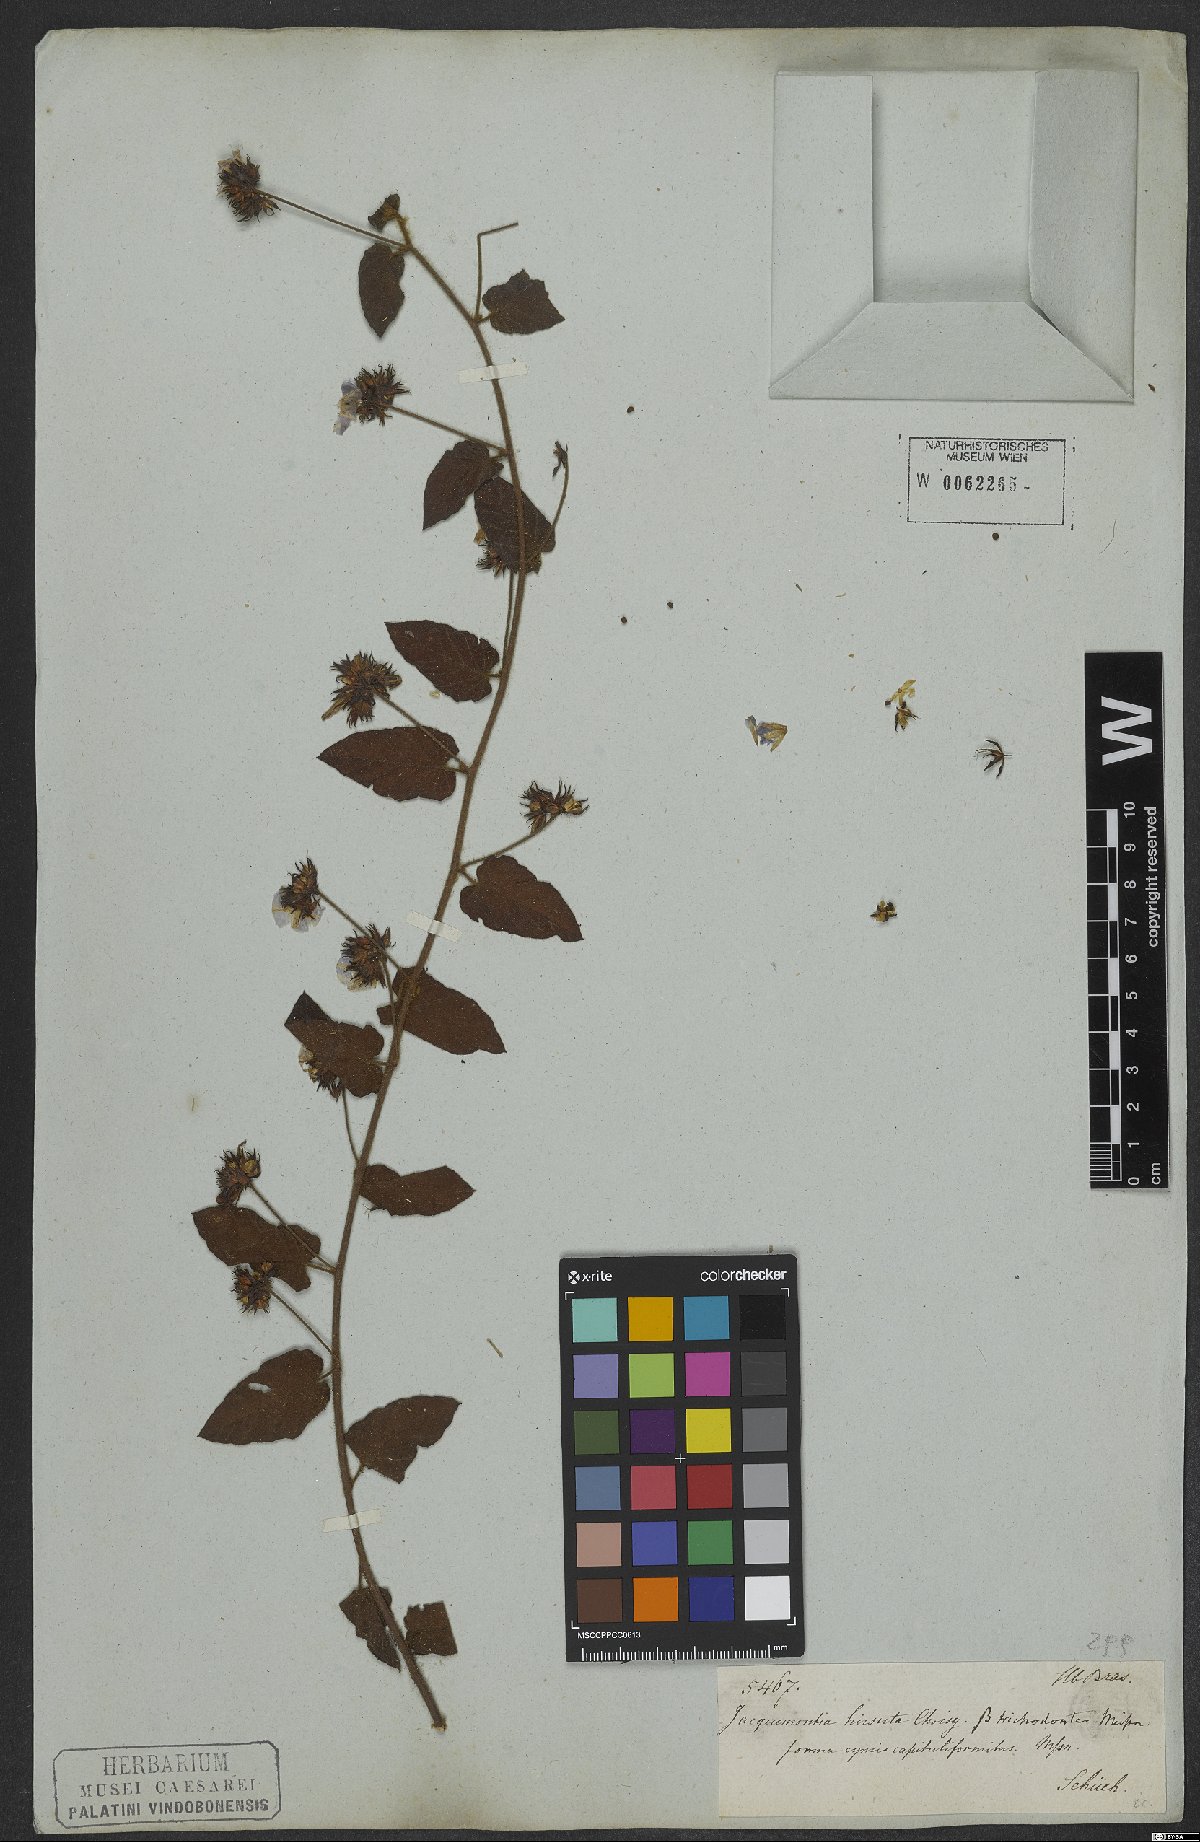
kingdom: Plantae
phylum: Tracheophyta
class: Magnoliopsida
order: Solanales
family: Convolvulaceae
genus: Jacquemontia
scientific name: Jacquemontia sphaerostigma
